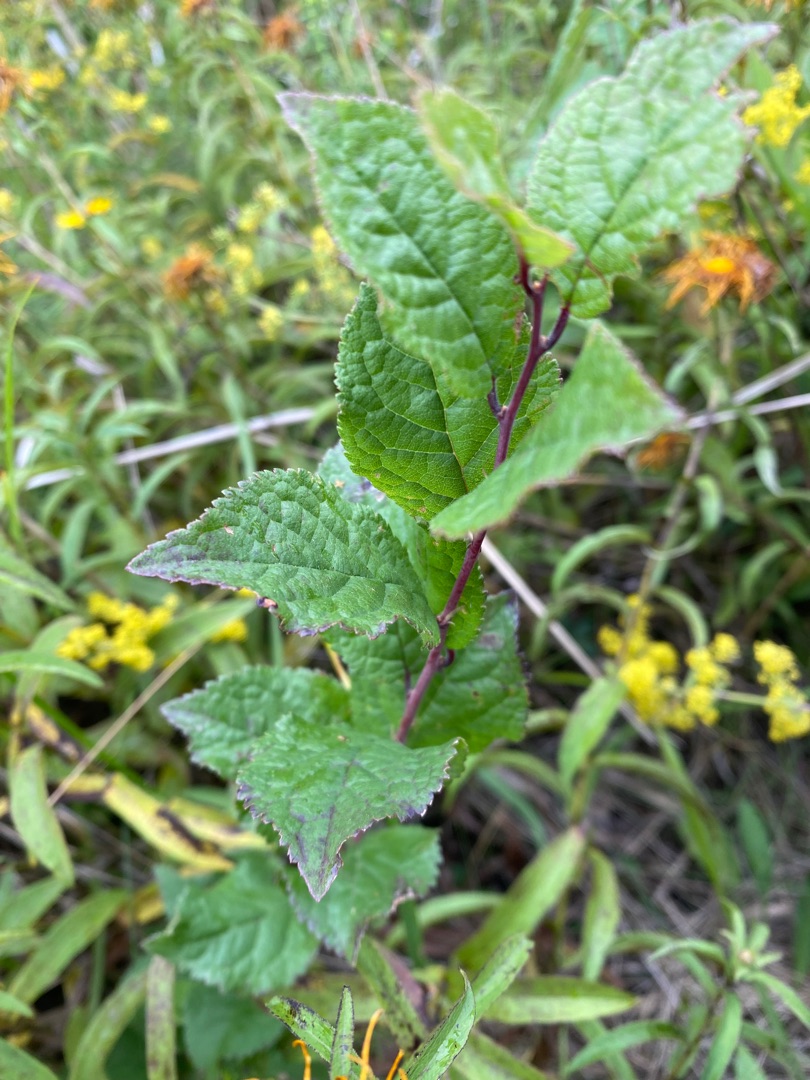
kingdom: Plantae
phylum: Tracheophyta
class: Magnoliopsida
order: Rosales
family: Rosaceae
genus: Prunus
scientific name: Prunus spinosa
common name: Slåen
